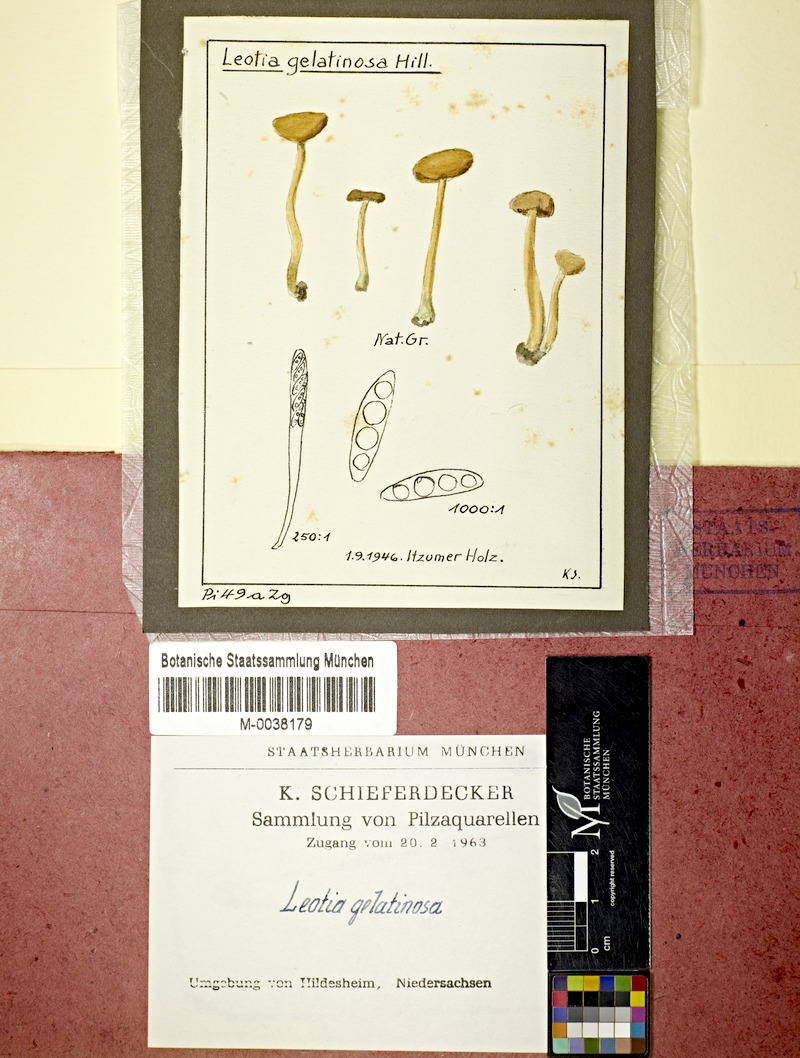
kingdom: Fungi
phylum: Ascomycota
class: Leotiomycetes
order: Leotiales
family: Leotiaceae
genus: Leotia
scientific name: Leotia lubrica
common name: Jellybaby
